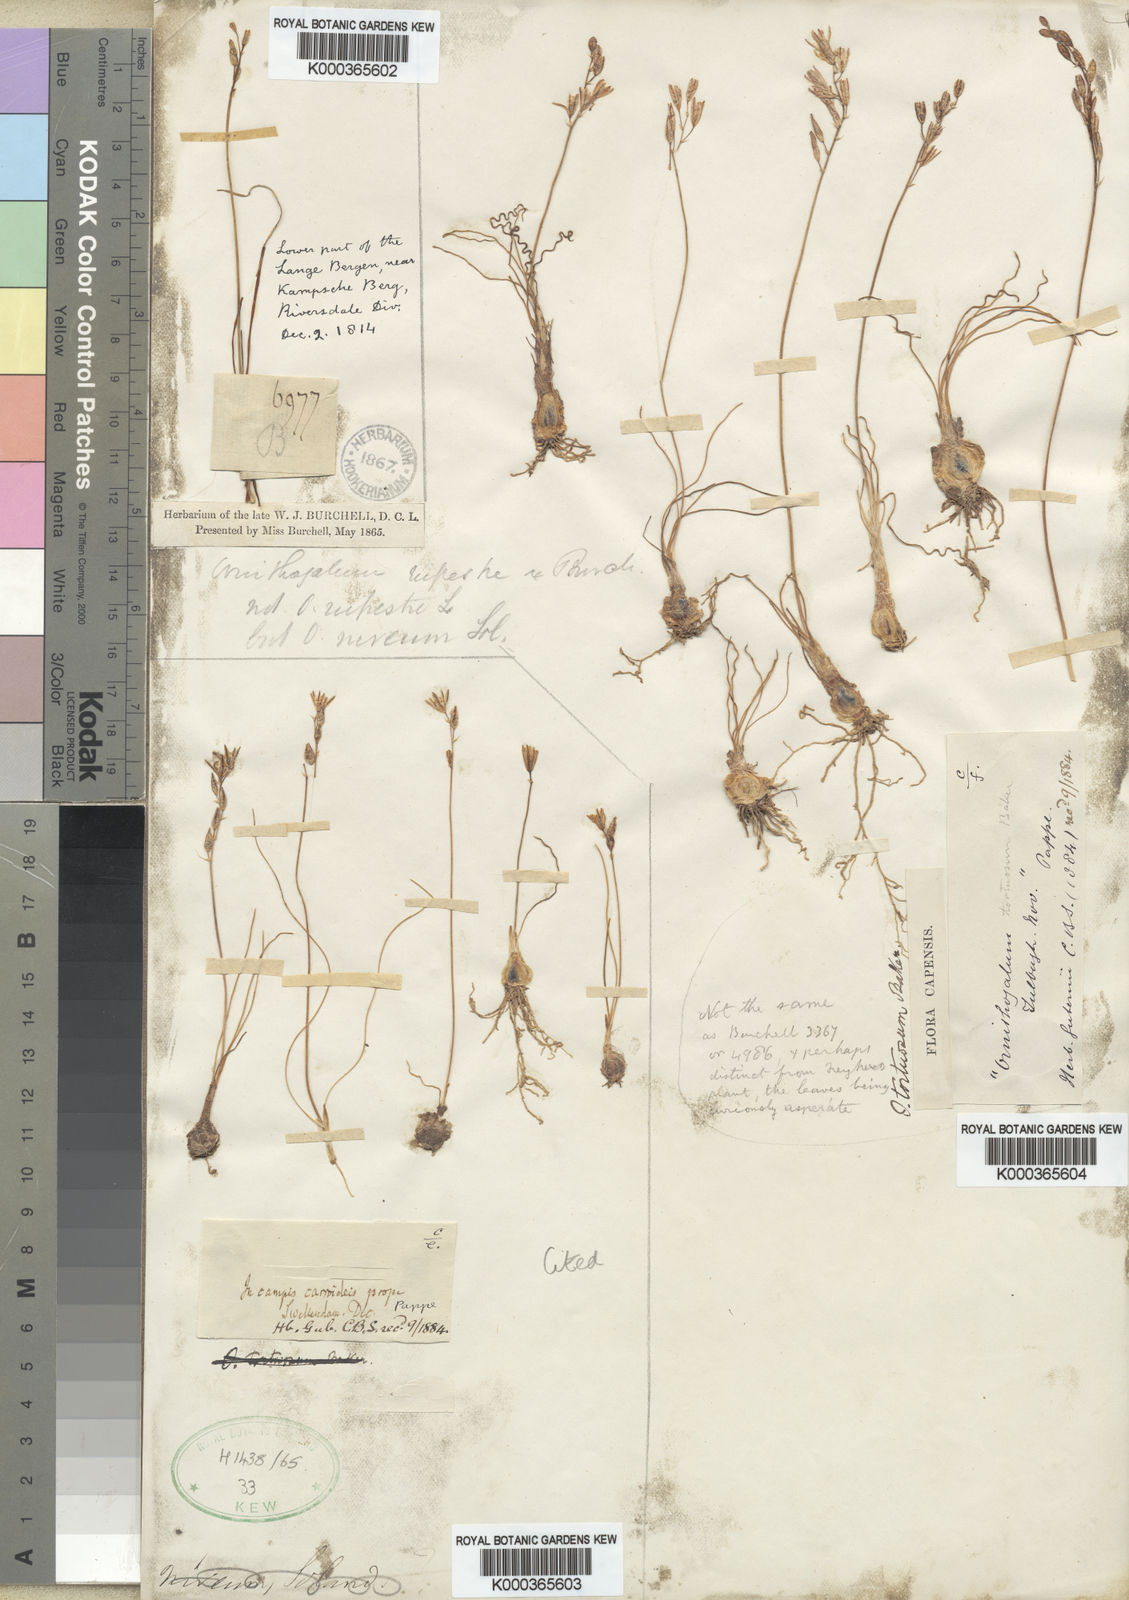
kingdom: Plantae
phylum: Tracheophyta
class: Liliopsida
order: Asparagales
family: Asparagaceae
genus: Ornithogalum
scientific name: Ornithogalum juncifolium
